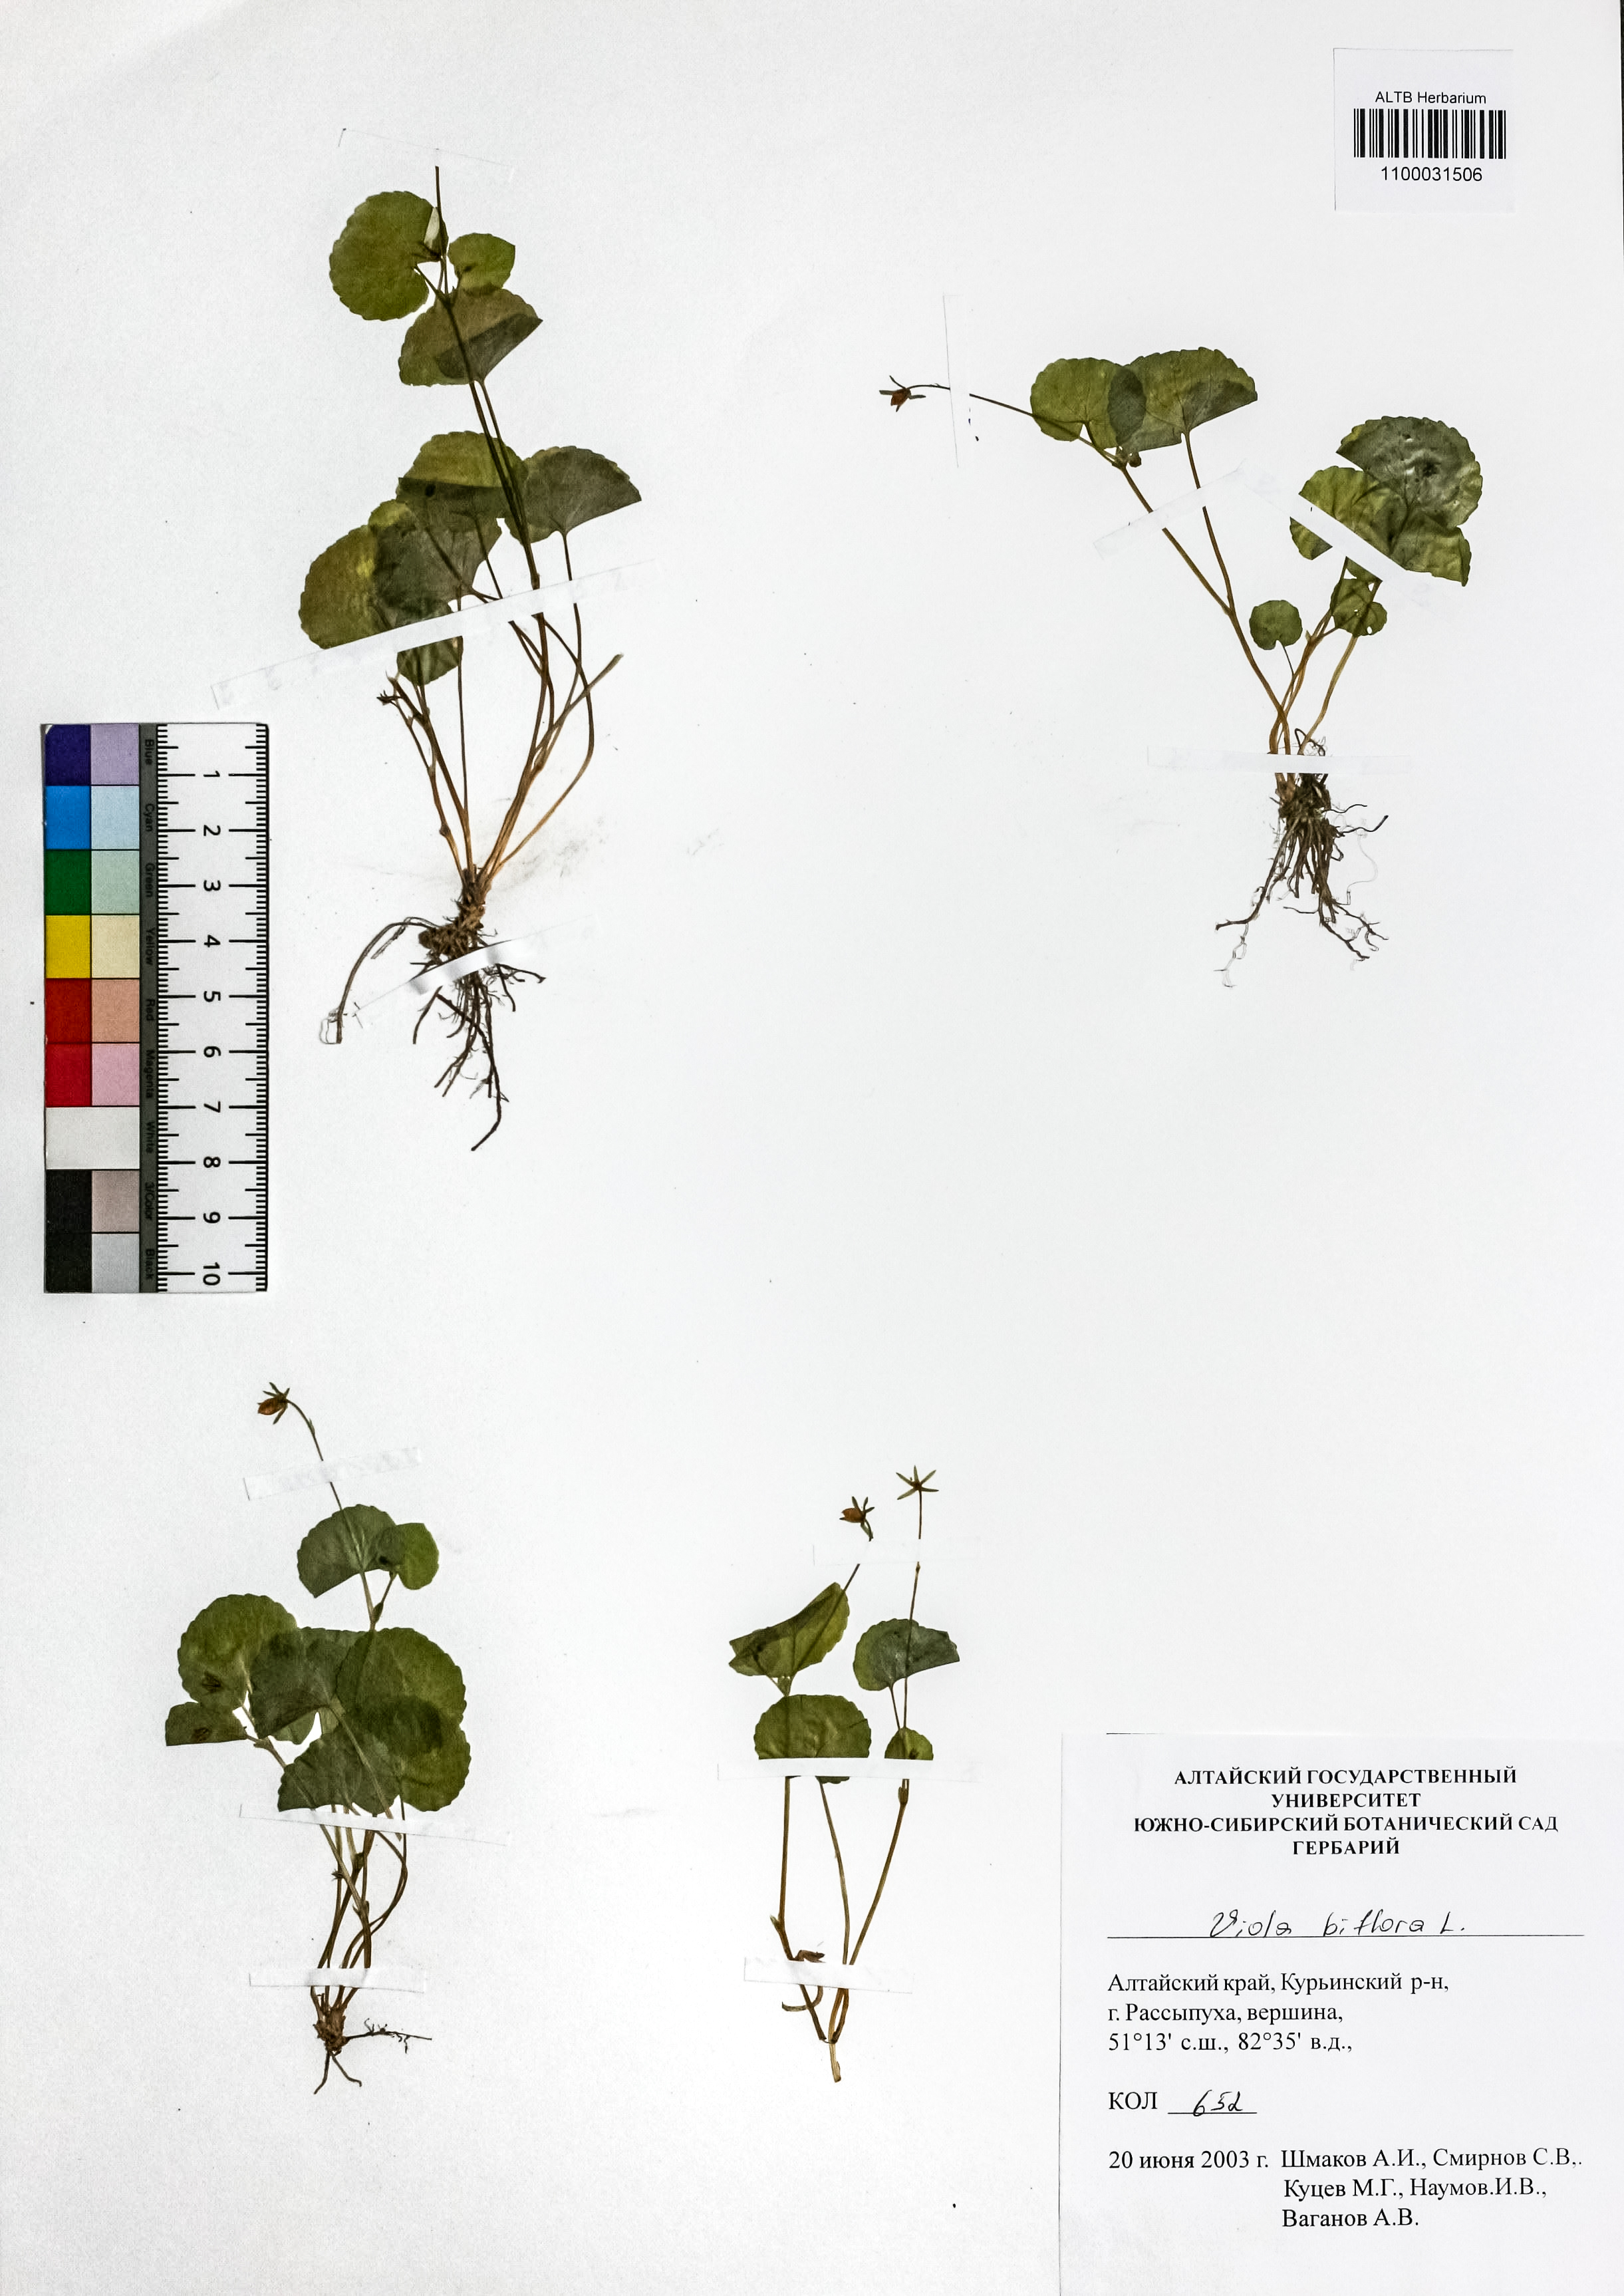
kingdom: Plantae
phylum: Tracheophyta
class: Magnoliopsida
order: Malpighiales
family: Violaceae
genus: Viola
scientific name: Viola biflora
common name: Alpine yellow violet
